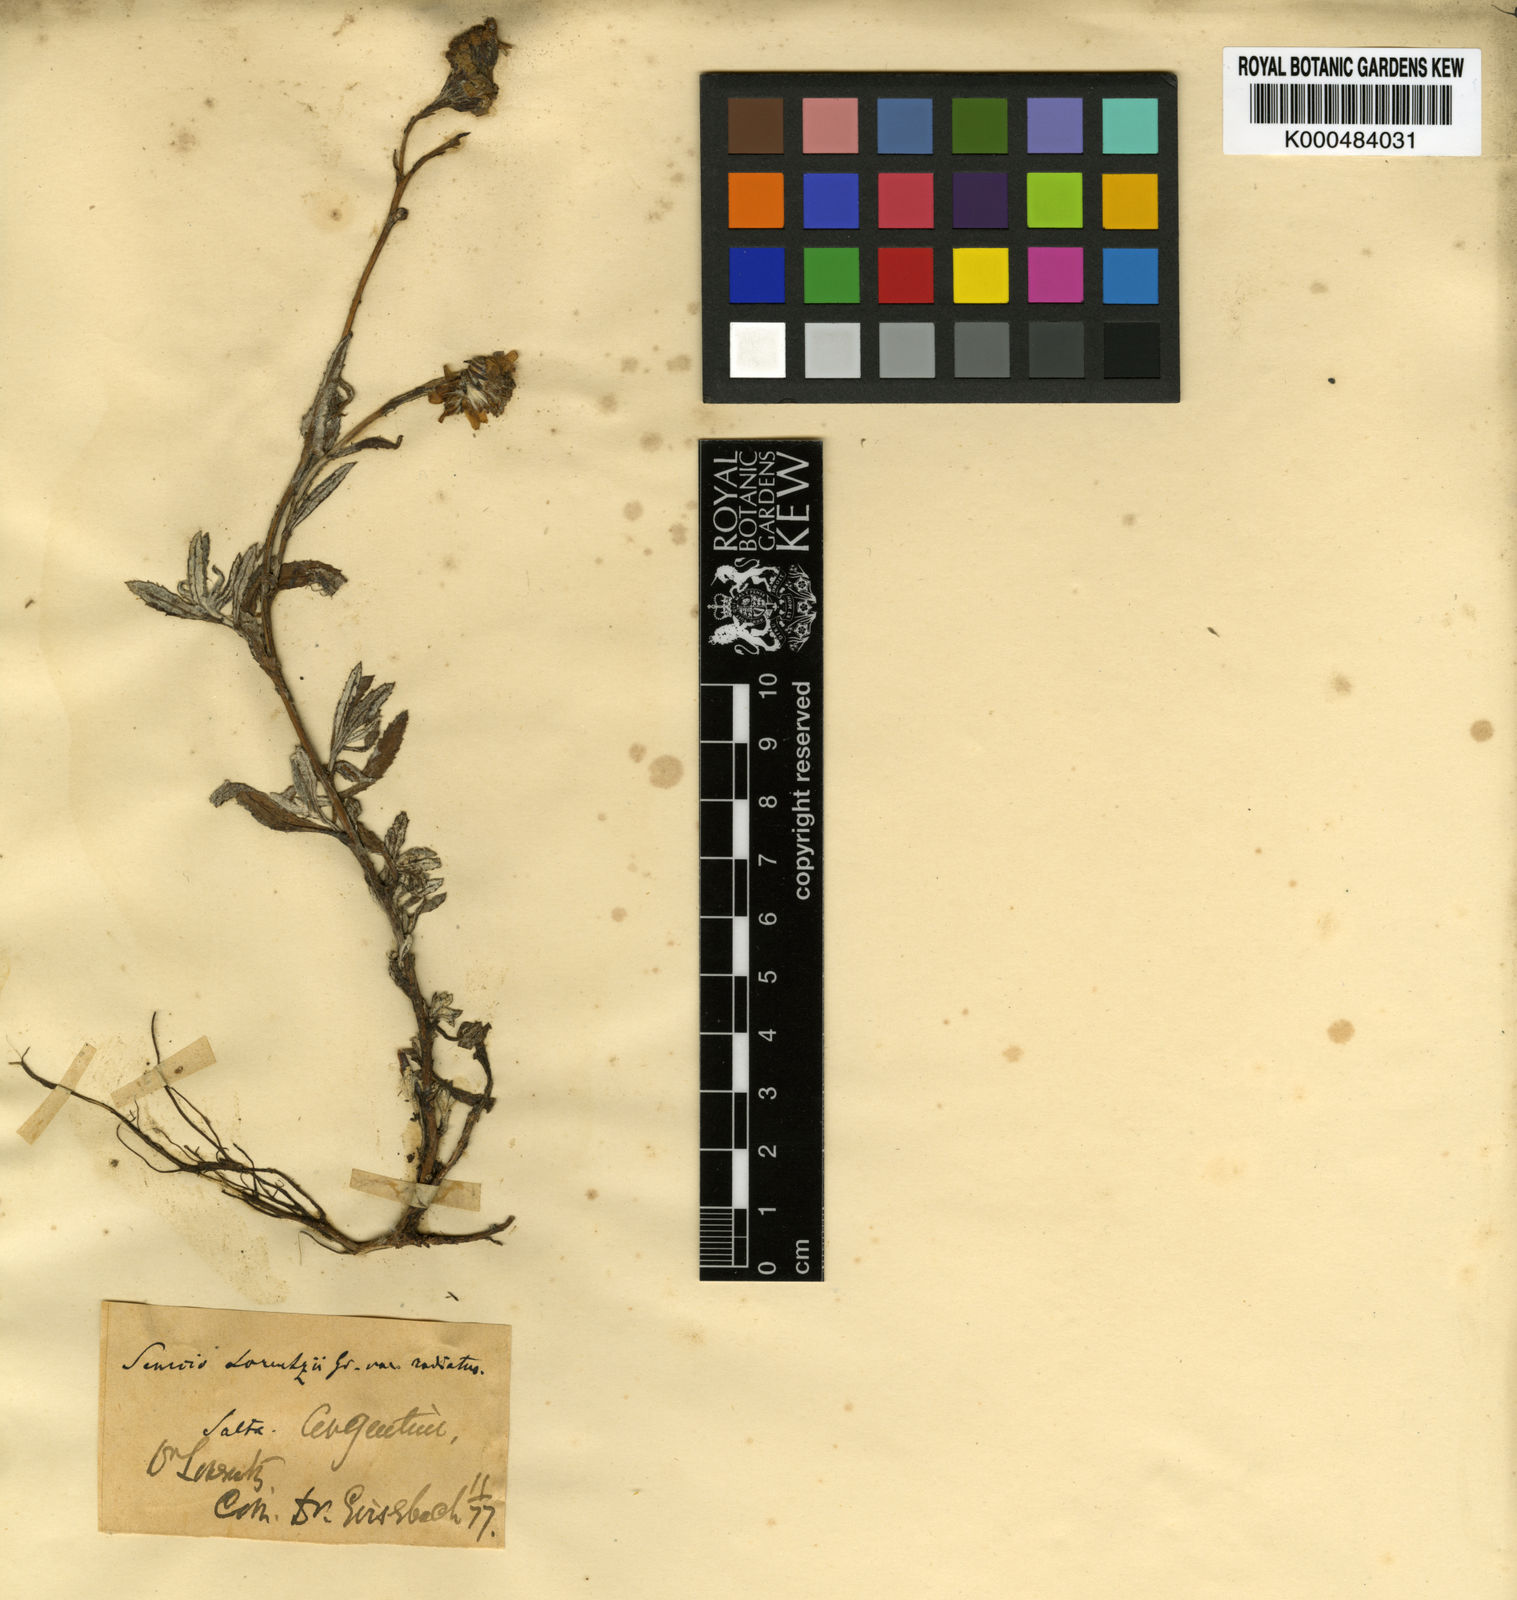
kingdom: Plantae
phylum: Tracheophyta
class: Magnoliopsida
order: Asterales
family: Asteraceae
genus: Senecio
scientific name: Senecio lorentzii
